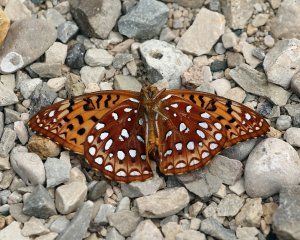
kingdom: Animalia
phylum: Arthropoda
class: Insecta
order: Lepidoptera
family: Nymphalidae
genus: Speyeria
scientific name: Speyeria aphrodite
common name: Aphrodite Fritillary
